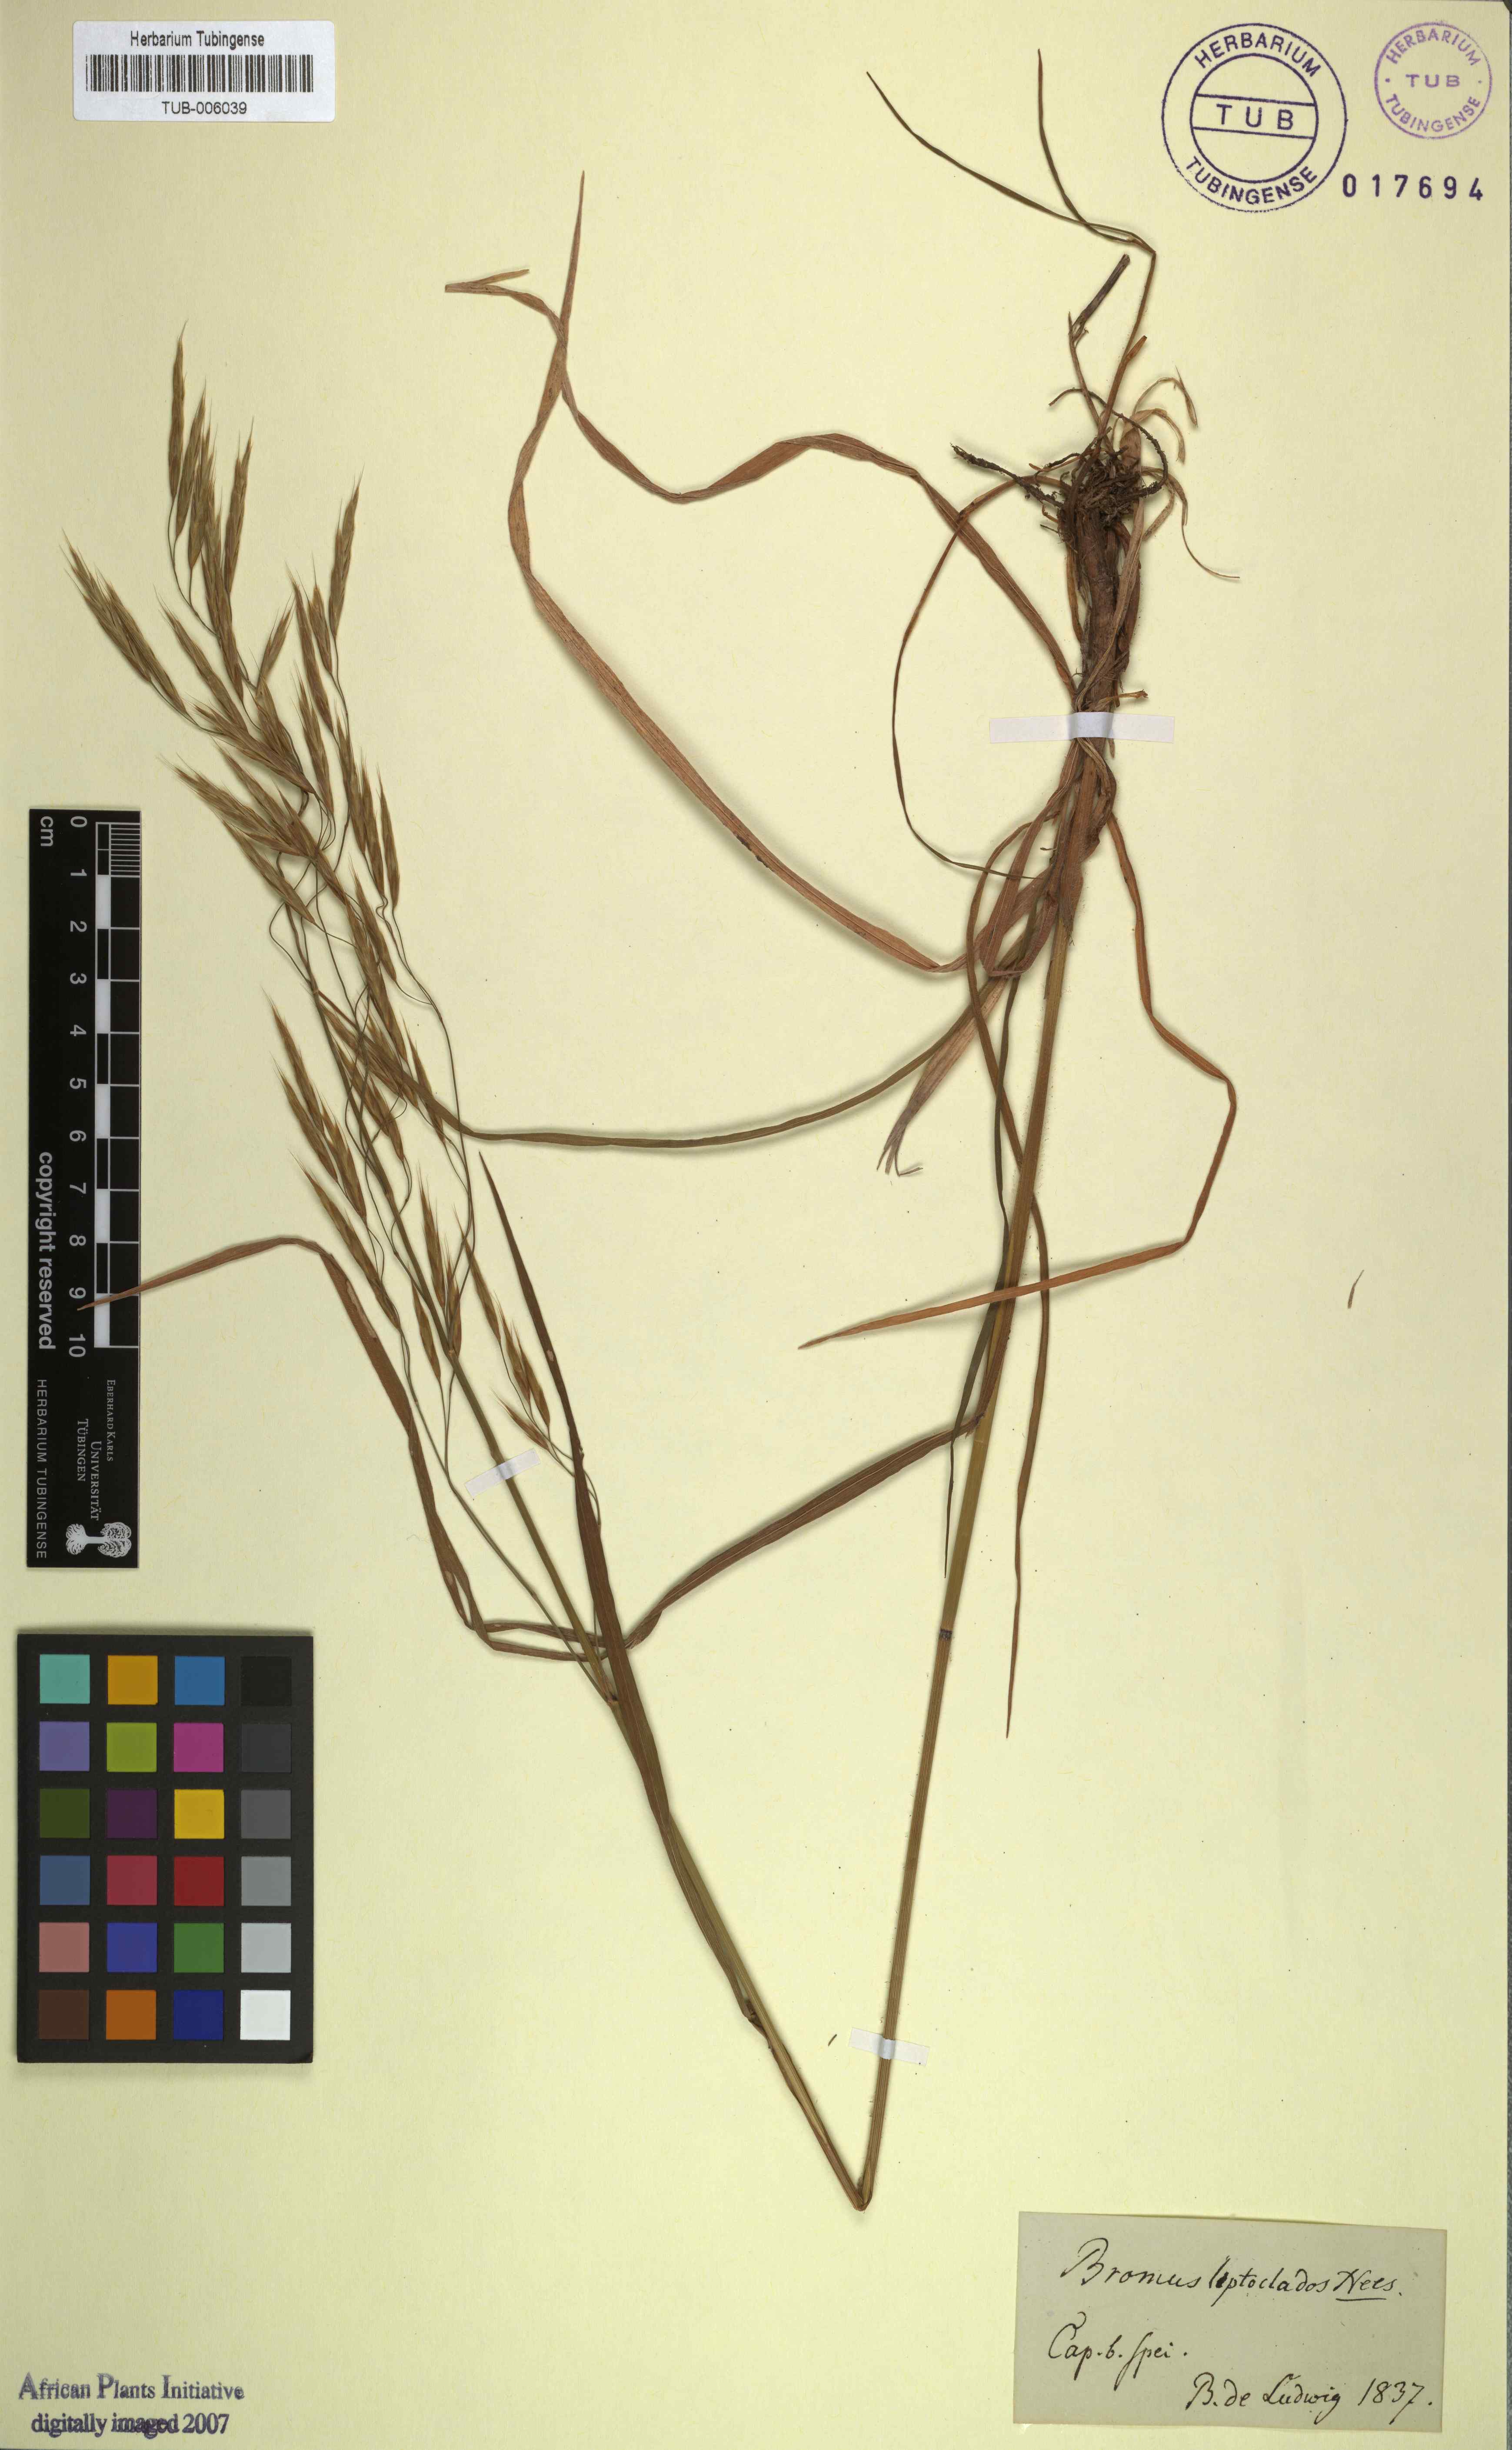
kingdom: Plantae
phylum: Tracheophyta
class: Liliopsida
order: Poales
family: Poaceae
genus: Bromus
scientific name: Bromus leptoclados
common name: Mountain bromegrass
